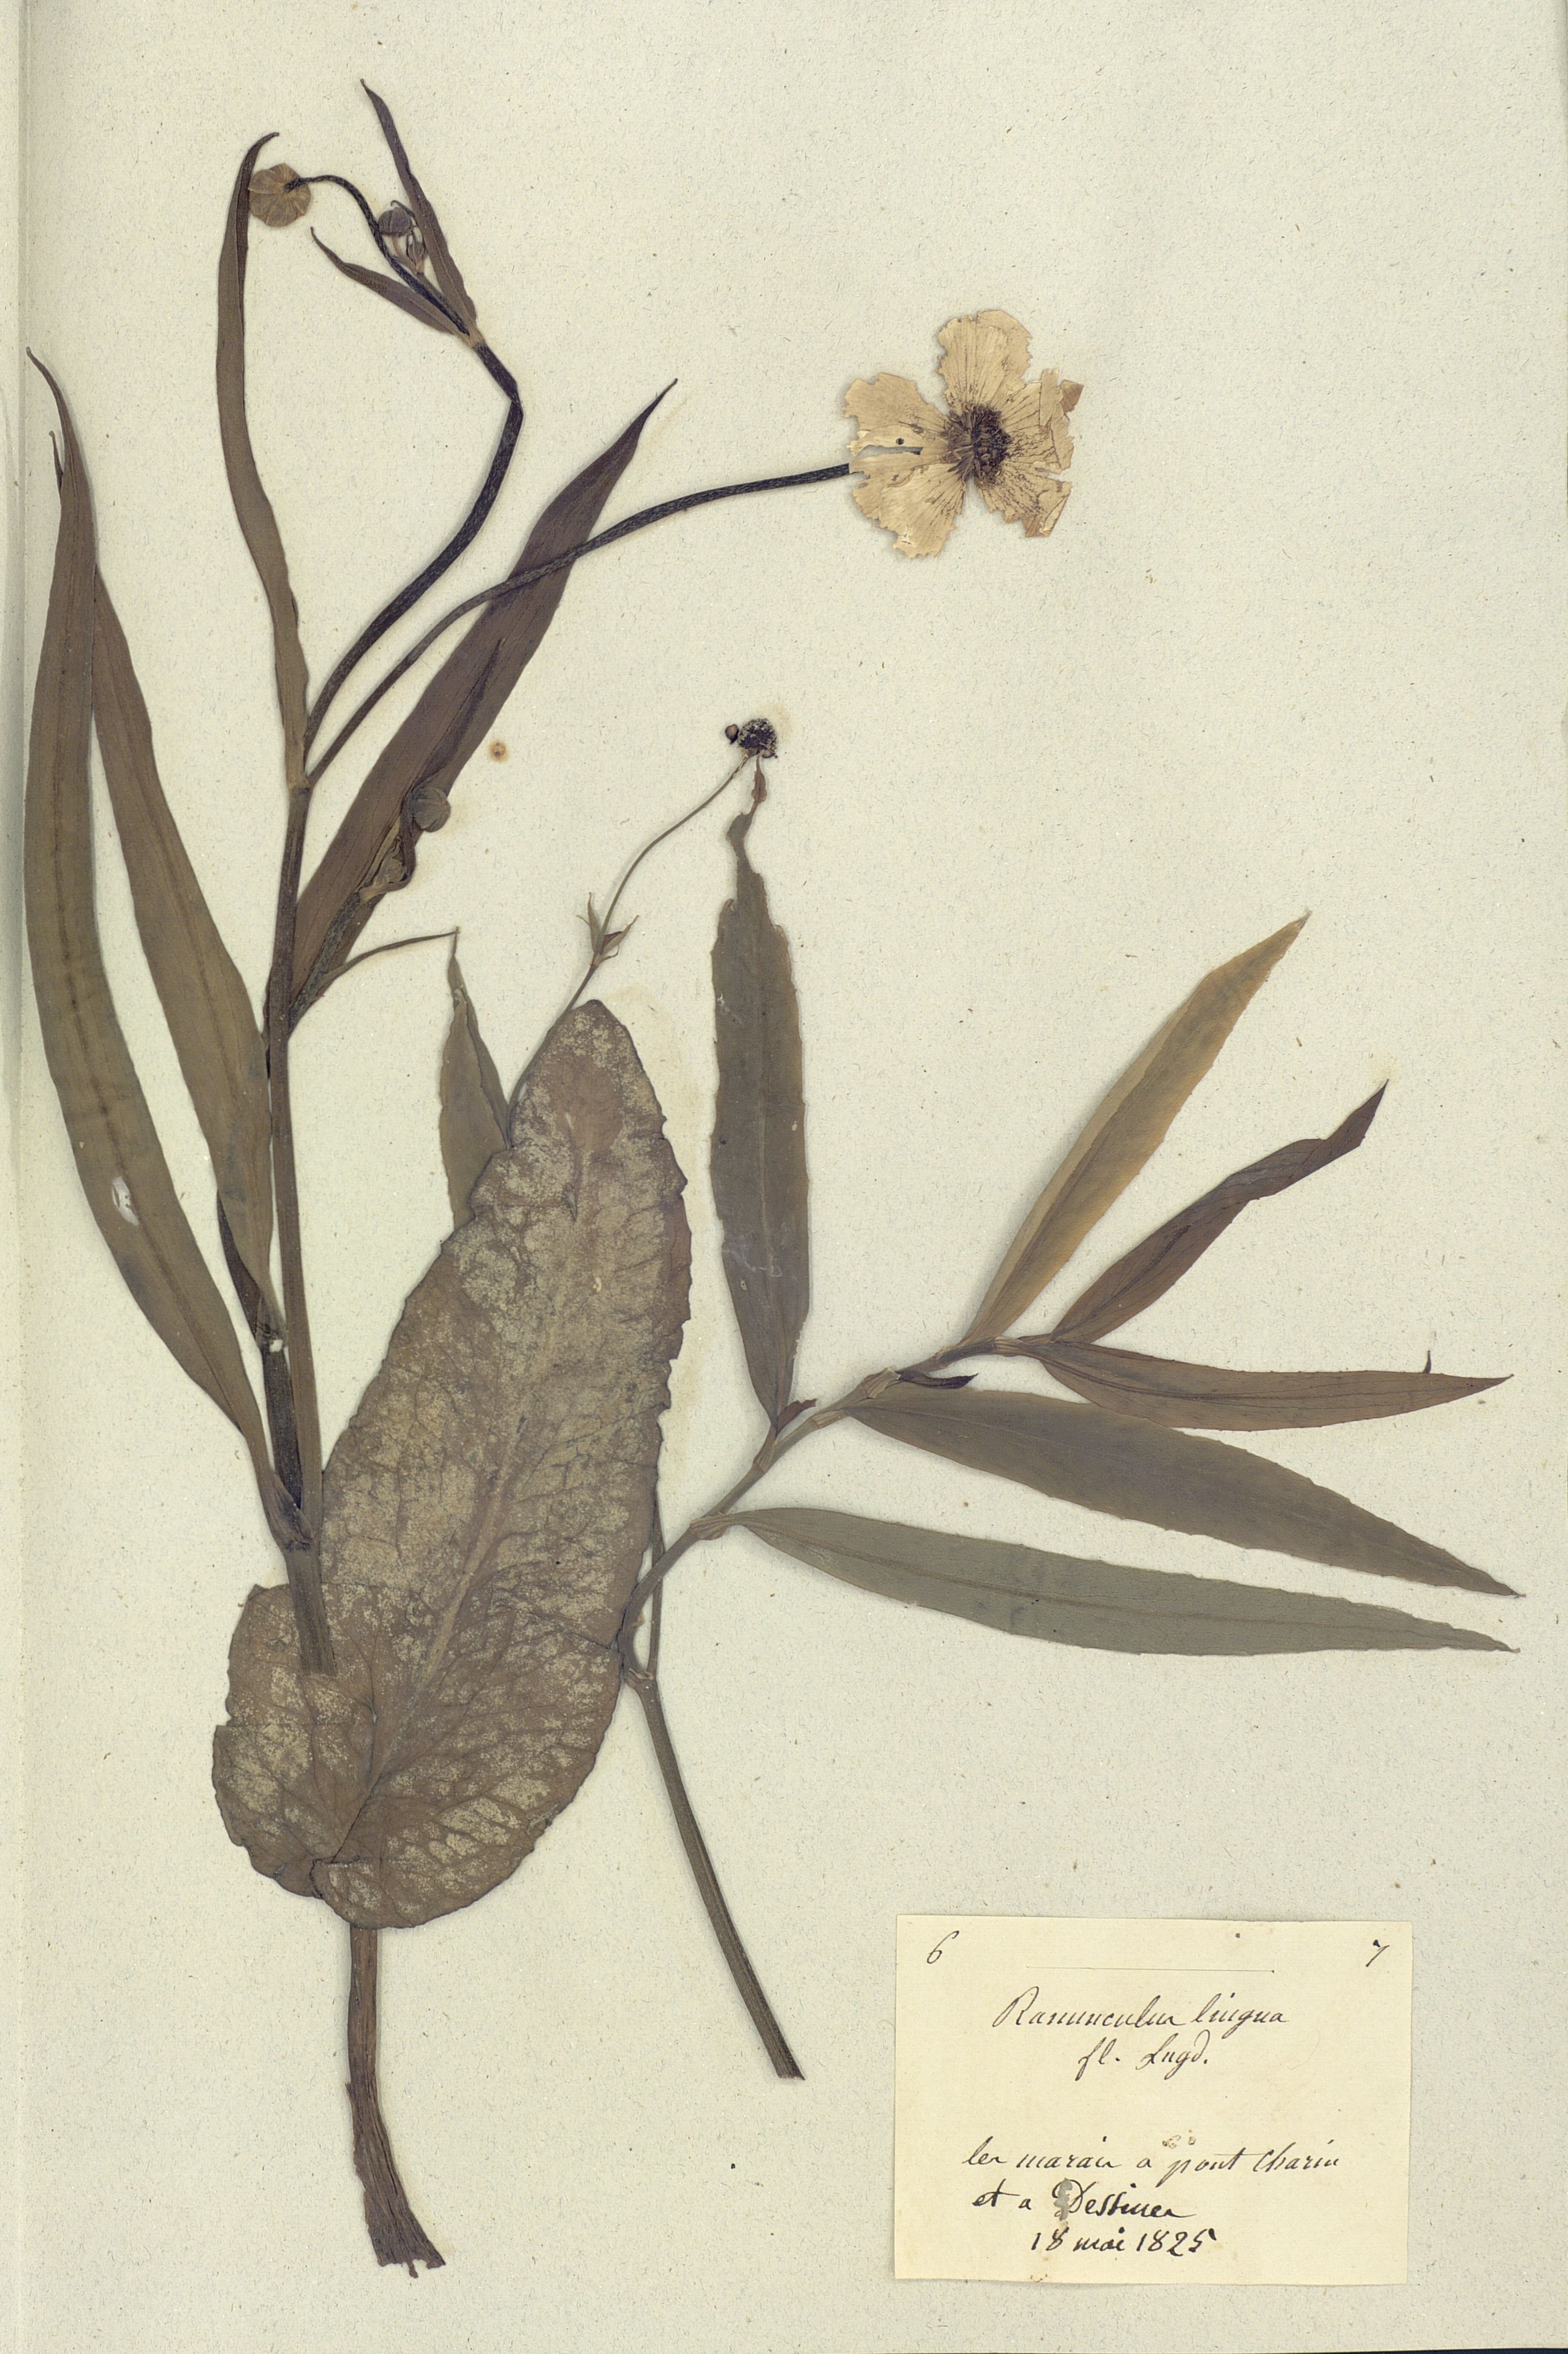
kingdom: Plantae
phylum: Tracheophyta
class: Magnoliopsida
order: Ranunculales
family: Ranunculaceae
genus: Ranunculus
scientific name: Ranunculus lingua
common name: Greater spearwort
